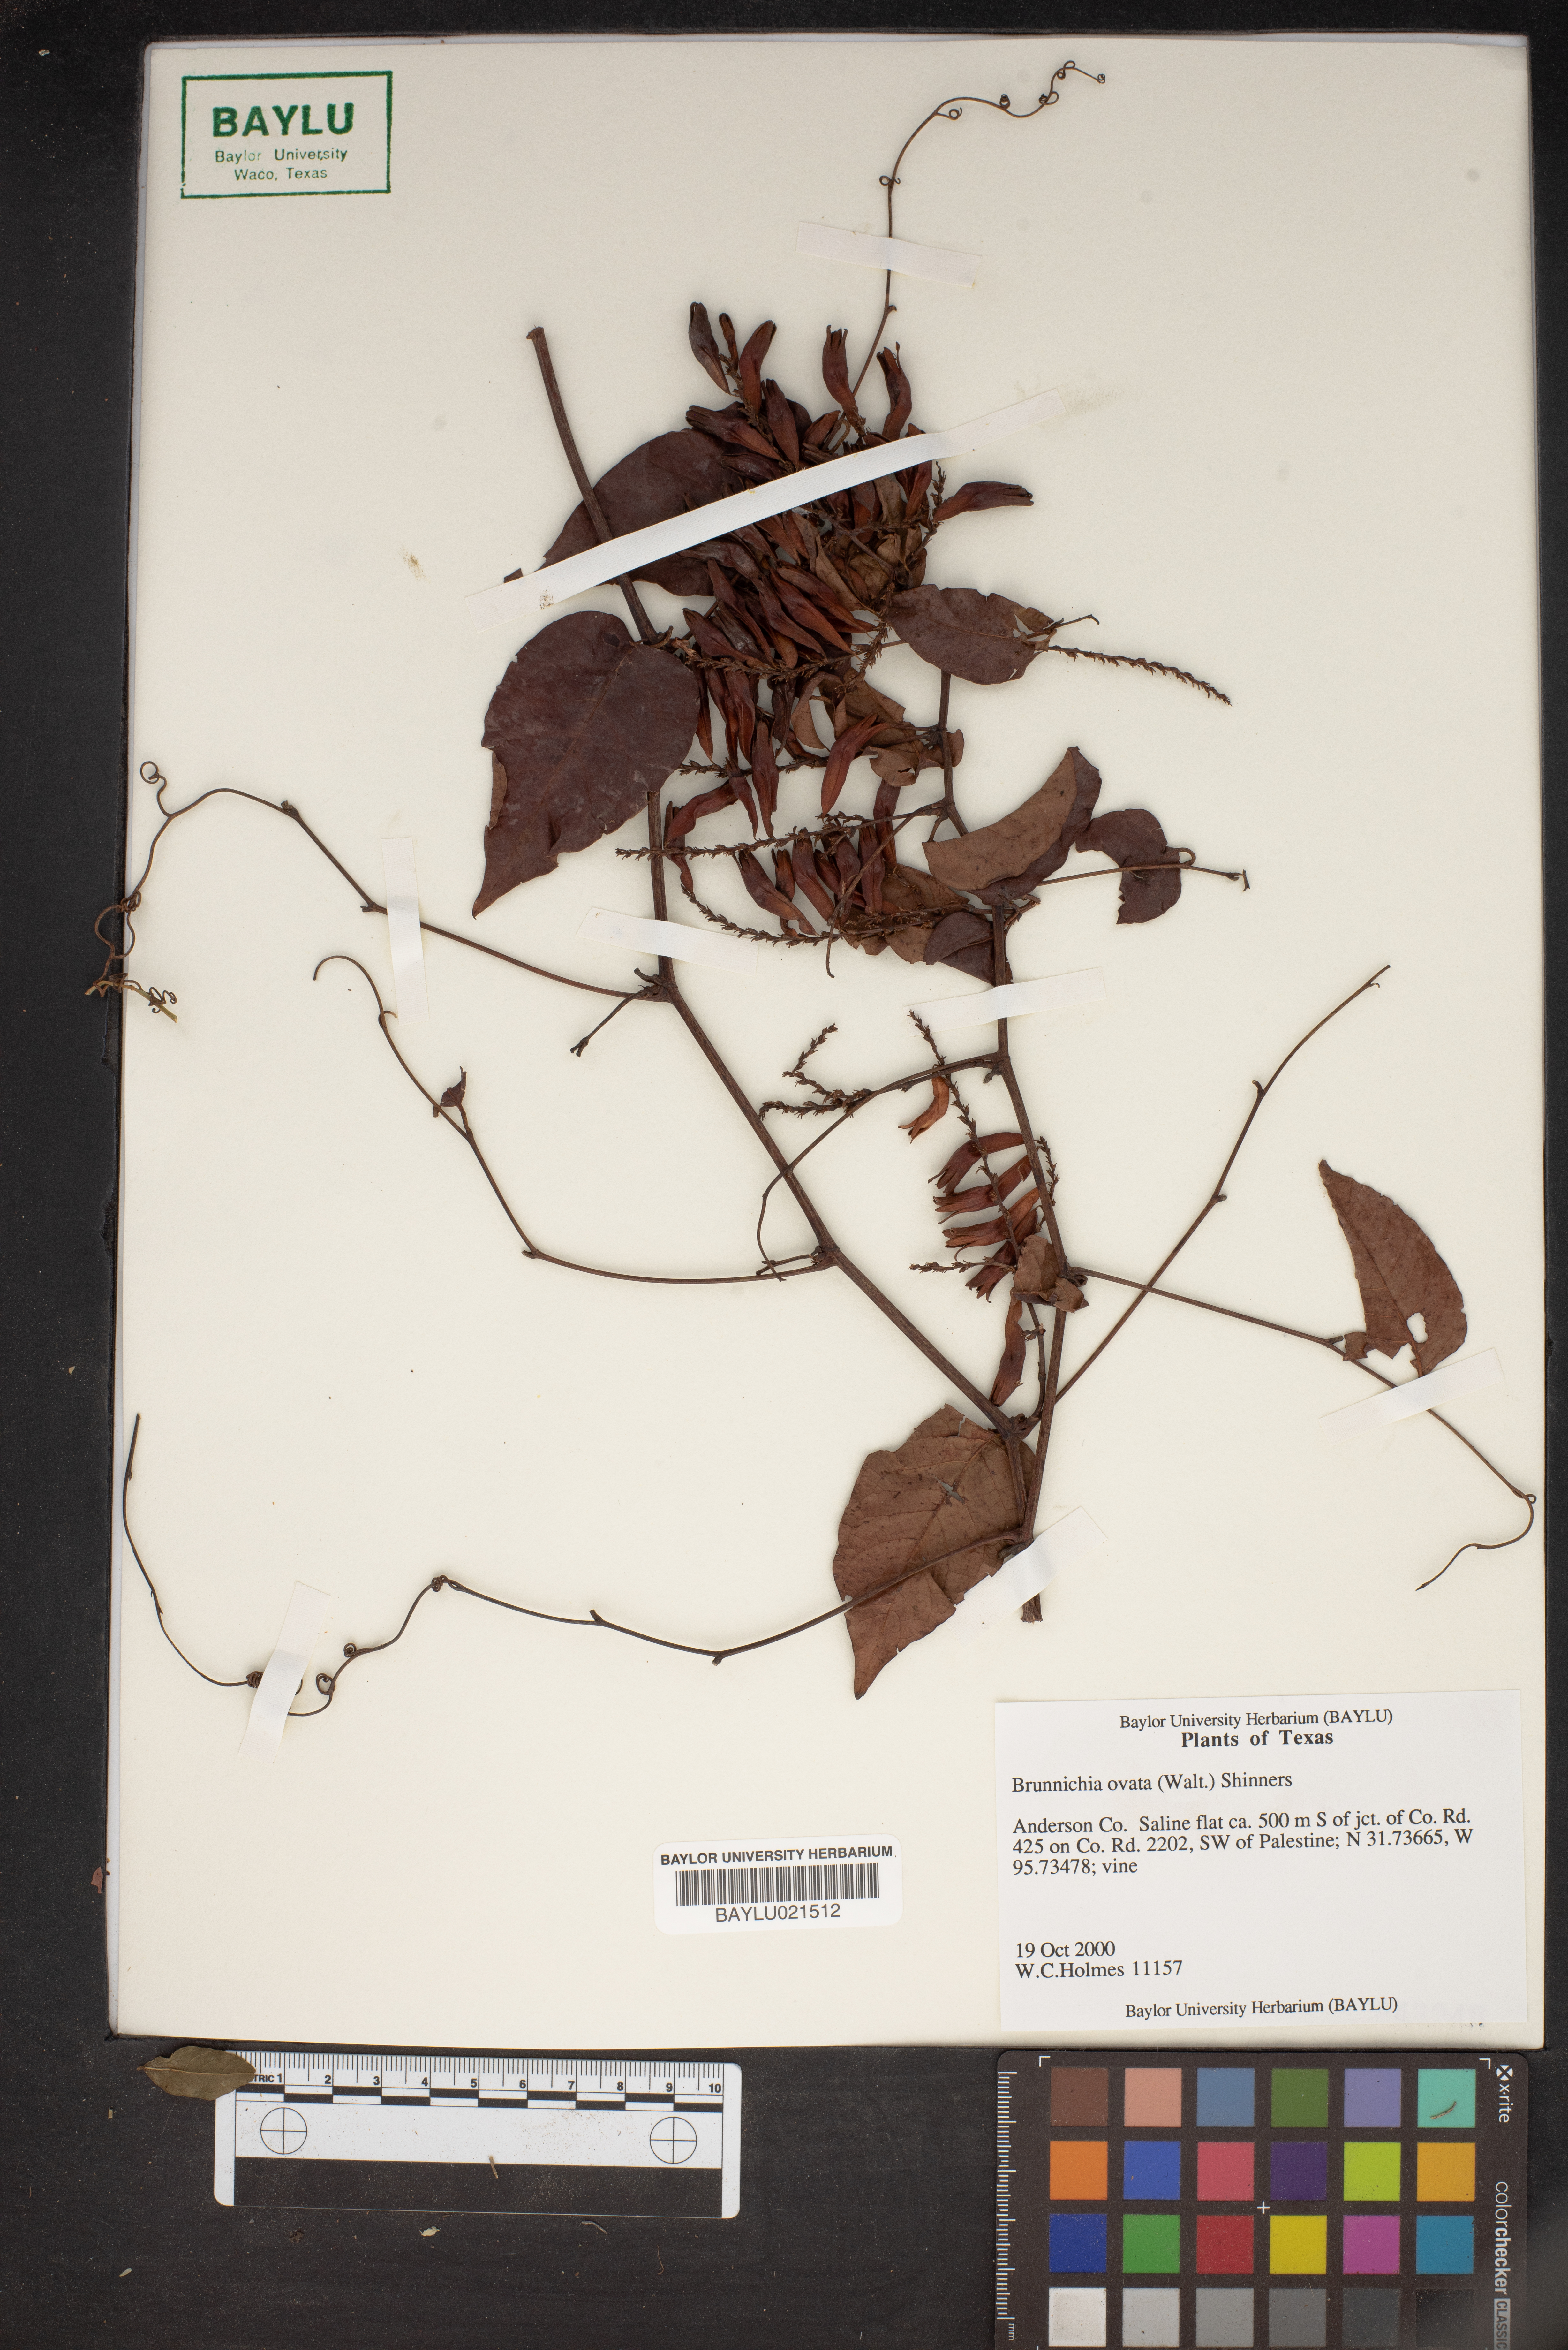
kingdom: Plantae
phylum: Tracheophyta
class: Magnoliopsida
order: Caryophyllales
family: Polygonaceae
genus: Brunnichia
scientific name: Brunnichia ovata
